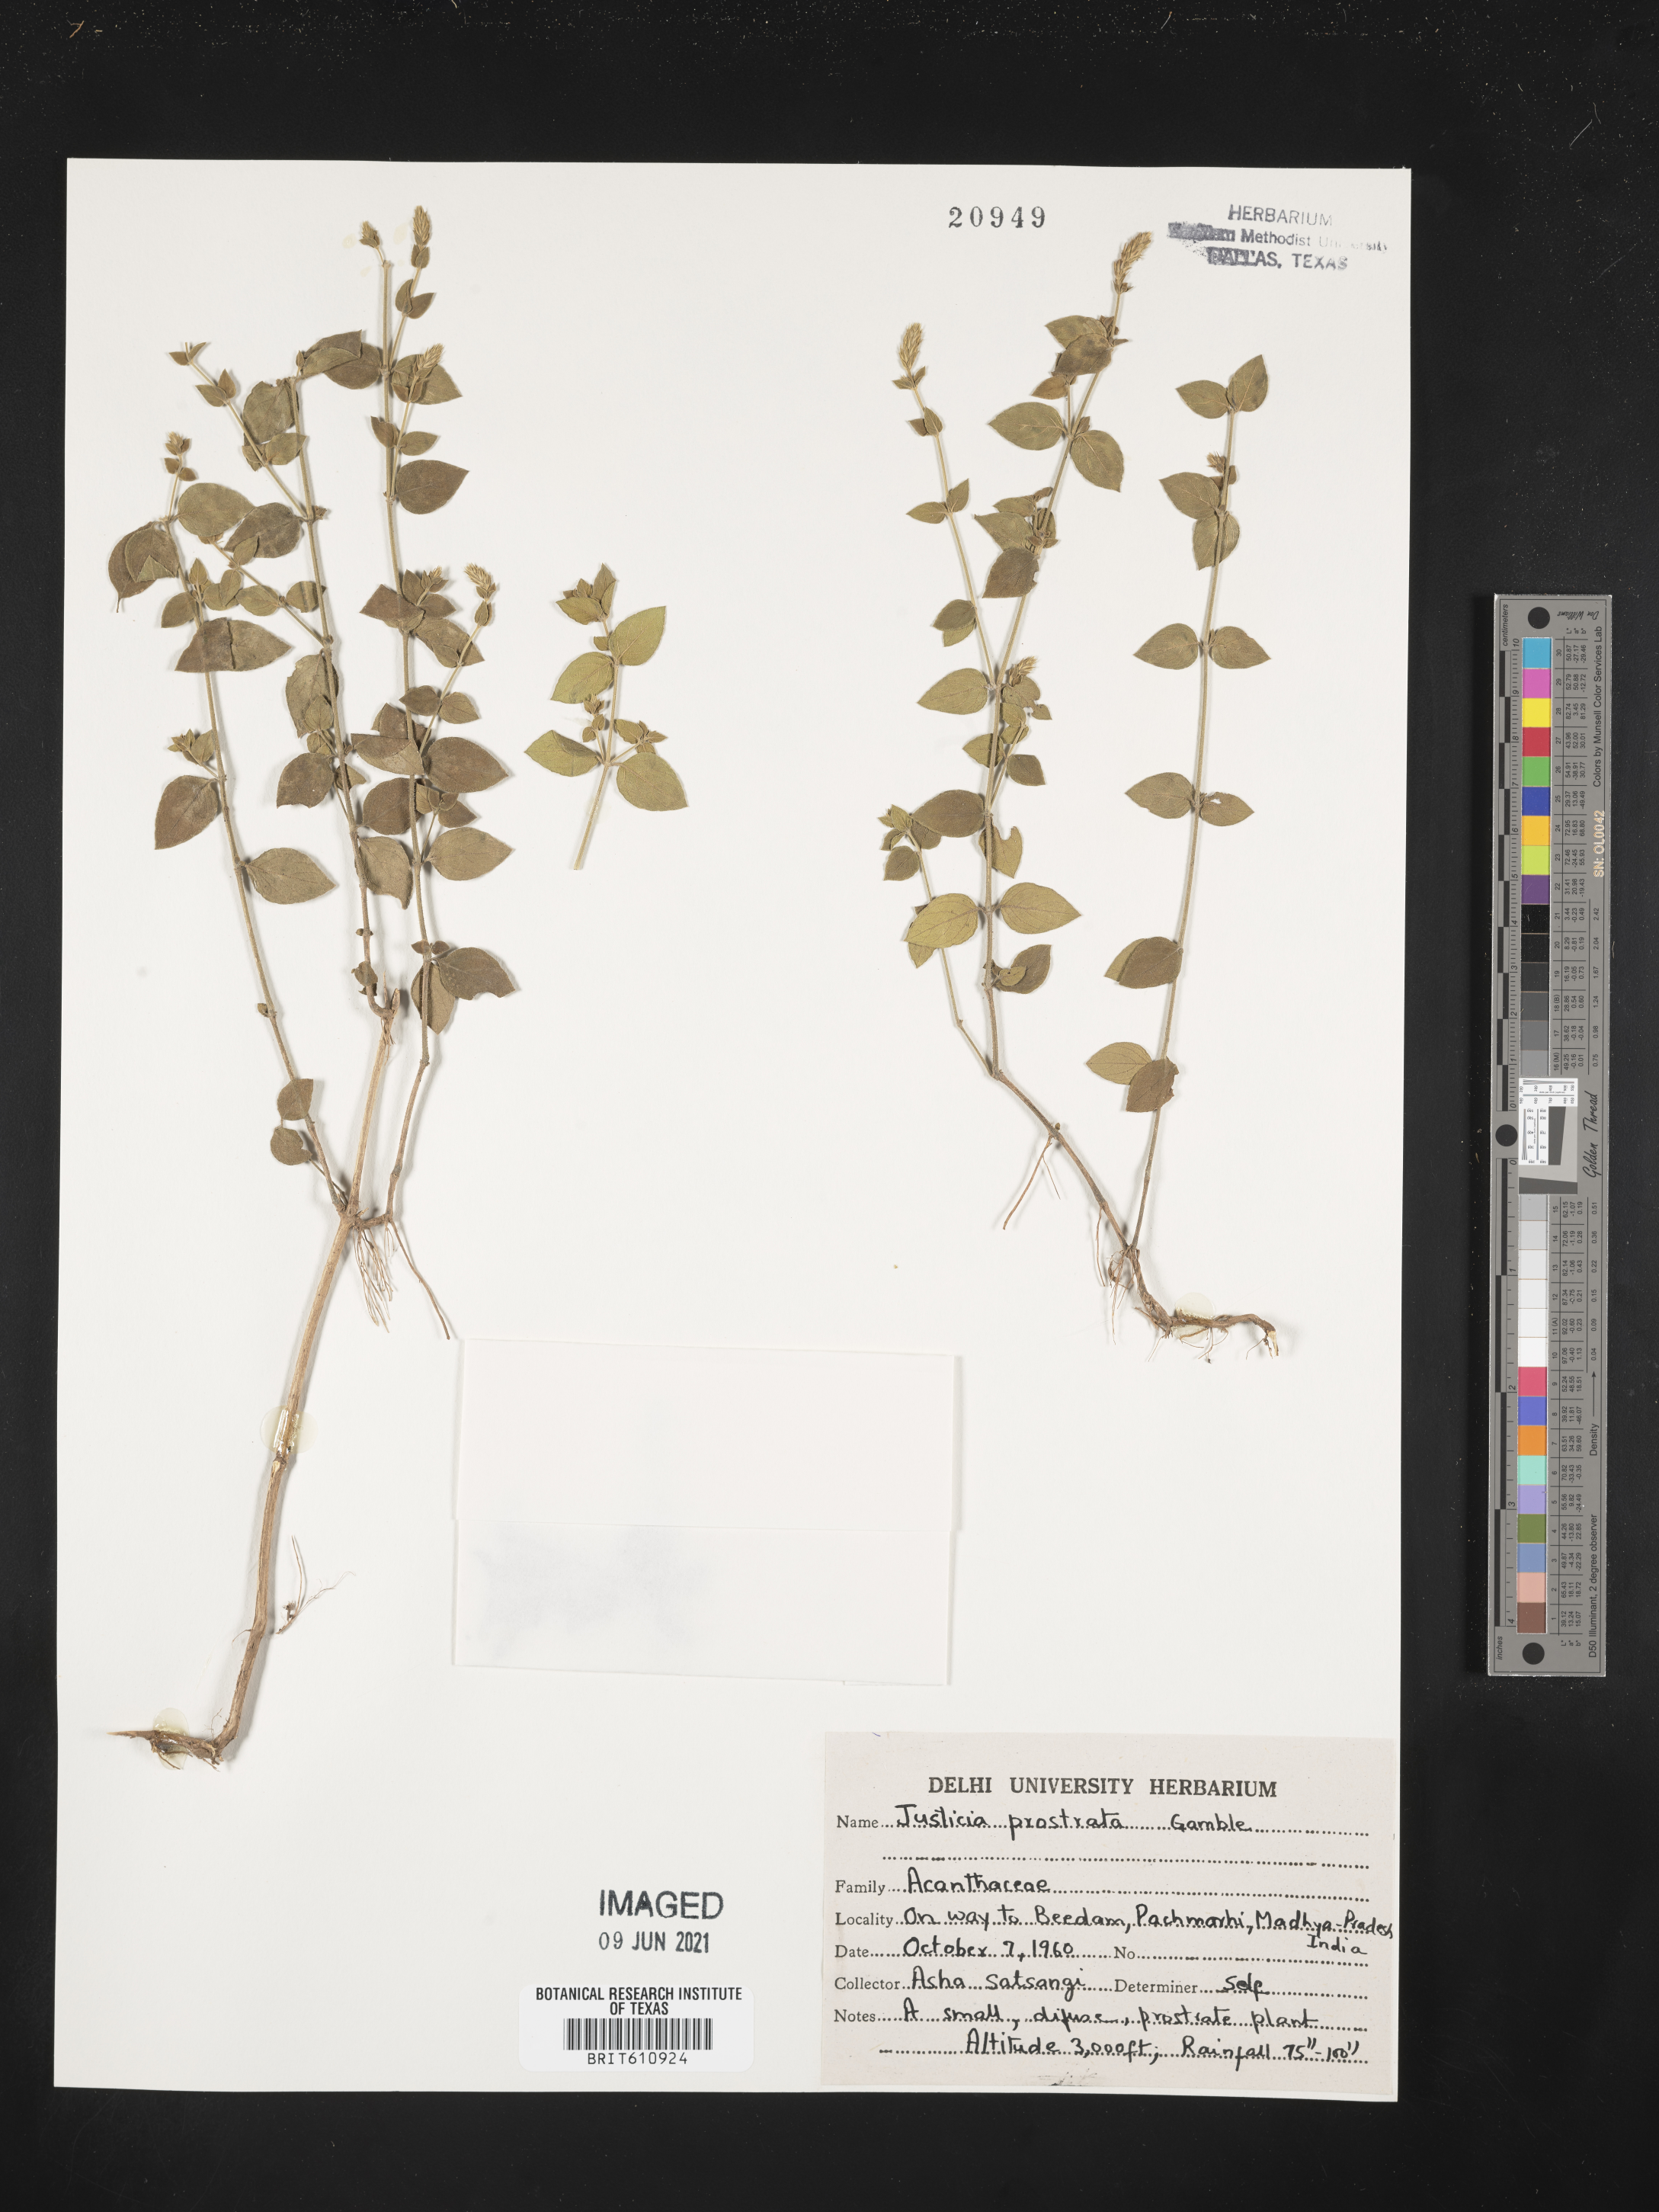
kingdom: Plantae
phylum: Tracheophyta
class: Magnoliopsida
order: Lamiales
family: Acanthaceae
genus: Rostellularia
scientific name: Rostellularia prostrata
